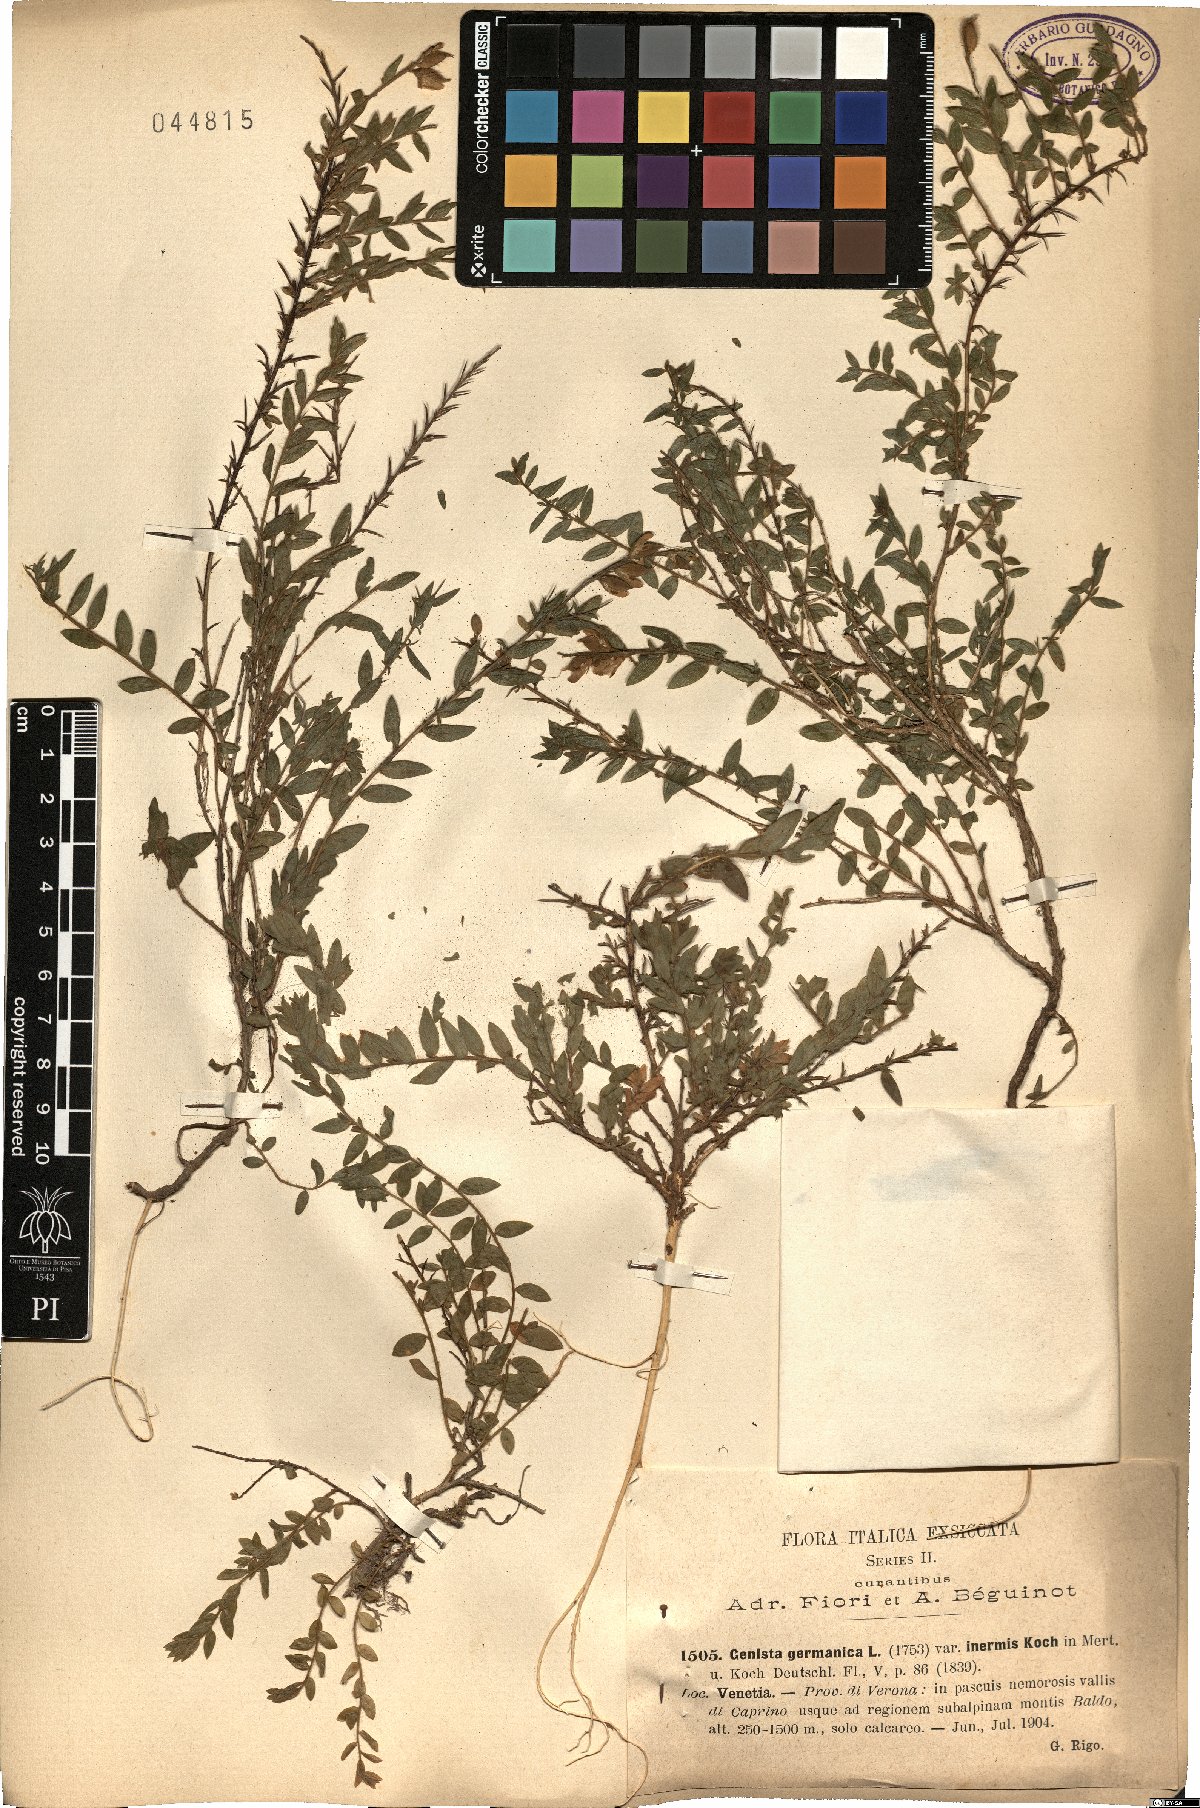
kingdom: Plantae
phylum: Tracheophyta
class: Magnoliopsida
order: Fabales
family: Fabaceae
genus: Genista
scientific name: Genista germanica
